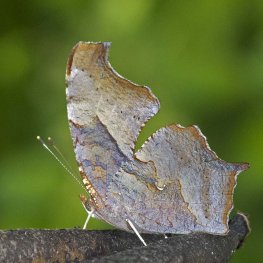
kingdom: Animalia
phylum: Arthropoda
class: Insecta
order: Lepidoptera
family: Nymphalidae
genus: Polygonia
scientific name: Polygonia interrogationis
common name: Question Mark
